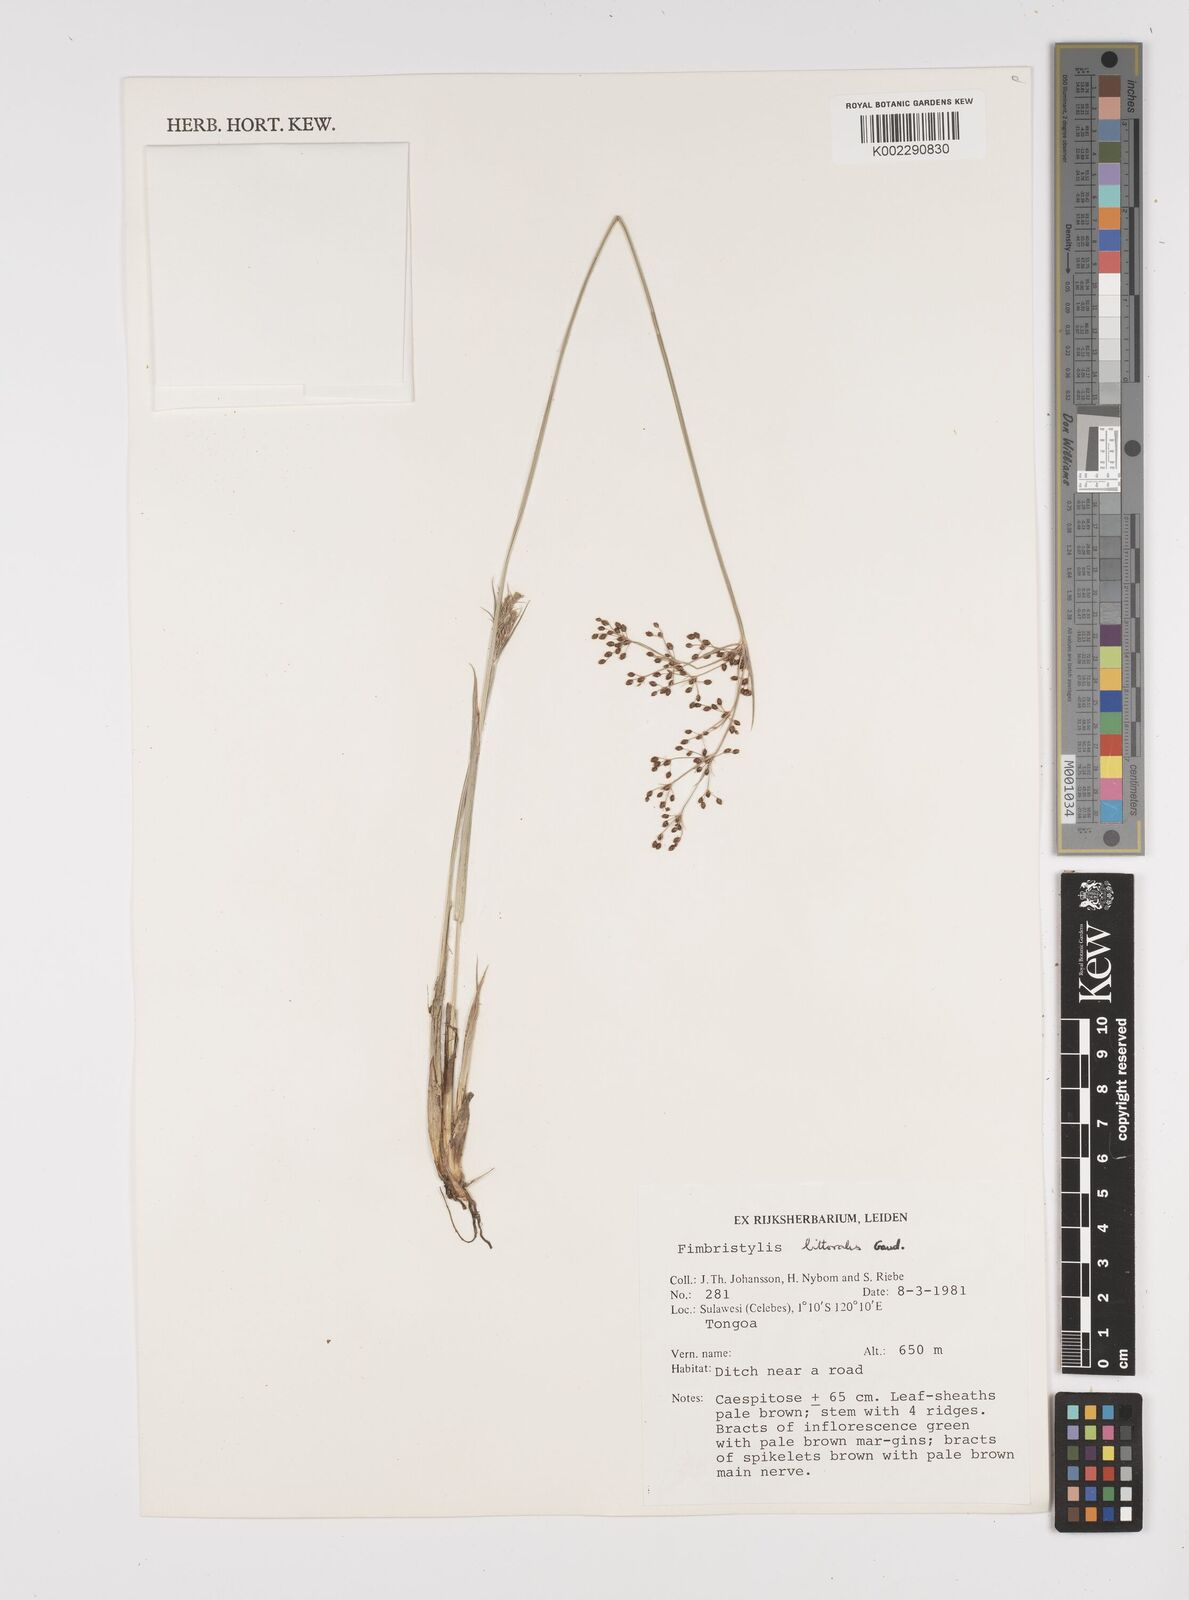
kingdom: Plantae
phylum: Tracheophyta
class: Liliopsida
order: Poales
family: Cyperaceae
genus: Fimbristylis
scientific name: Fimbristylis littoralis
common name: Fimbry
